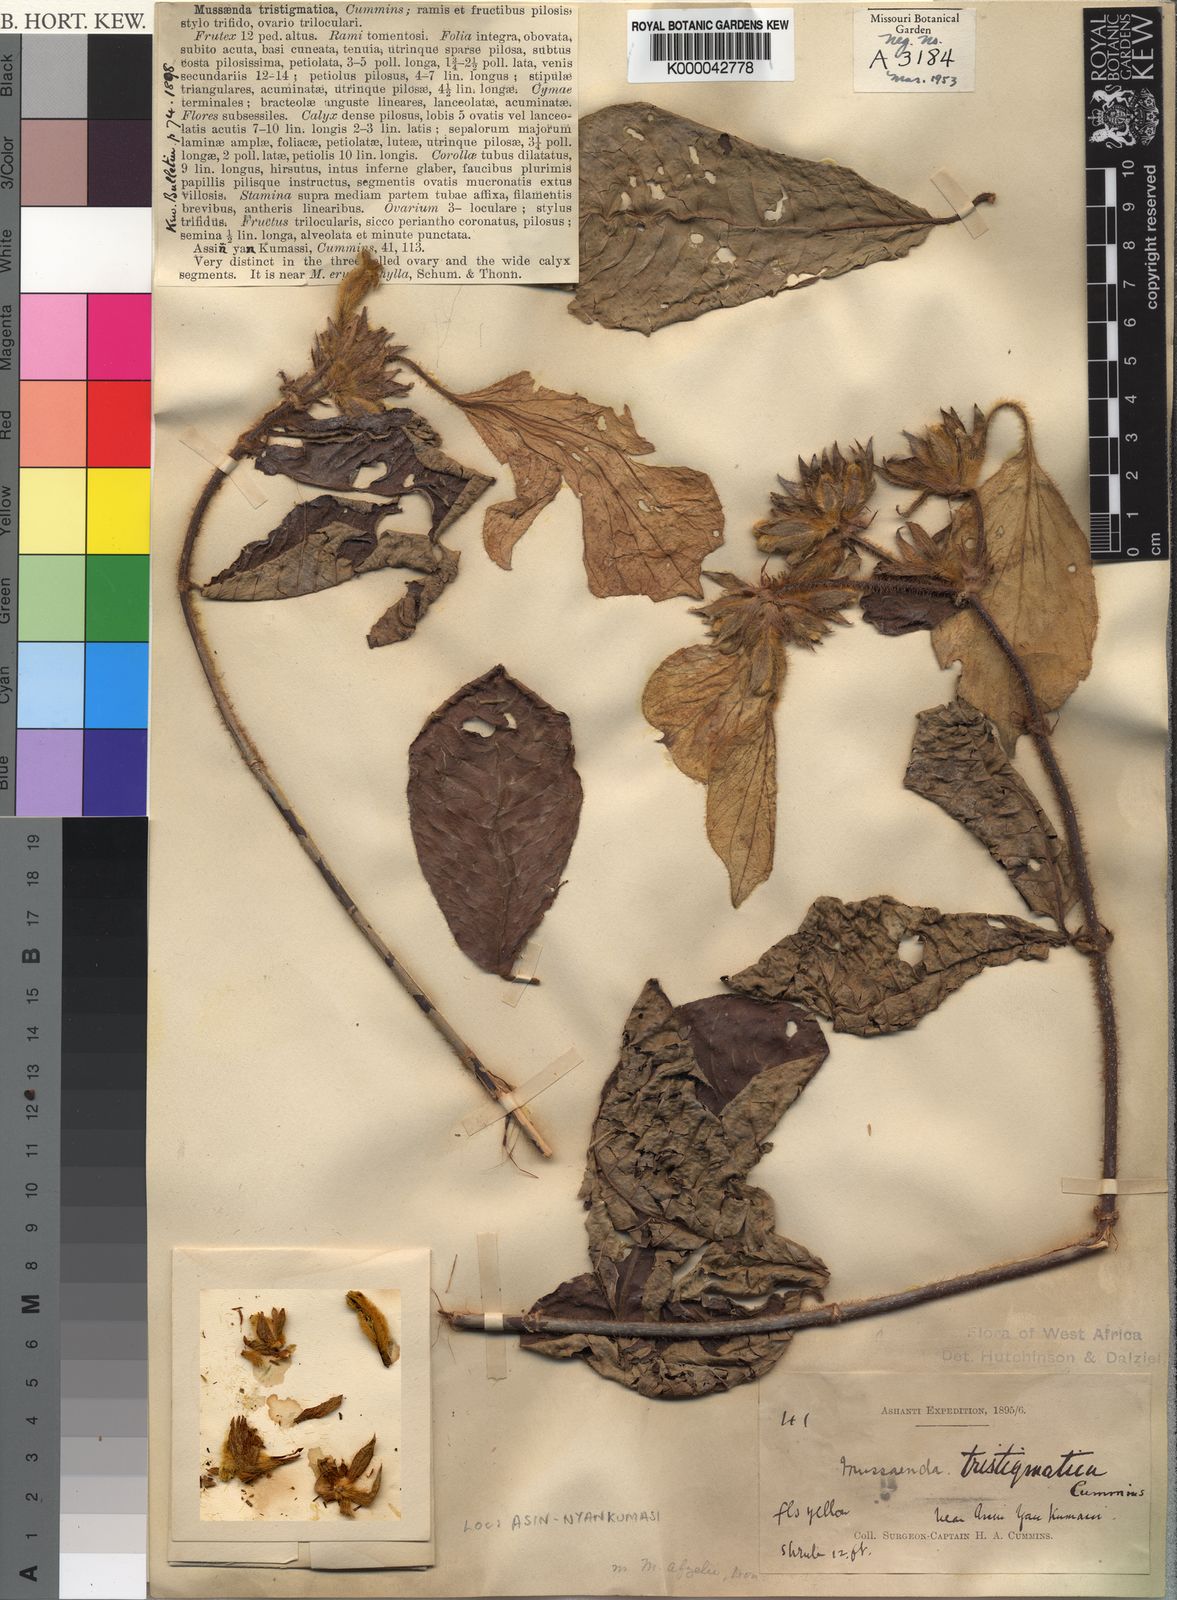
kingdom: Plantae
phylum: Tracheophyta
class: Magnoliopsida
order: Gentianales
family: Rubiaceae
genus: Mussaenda
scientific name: Mussaenda tristigmatica
